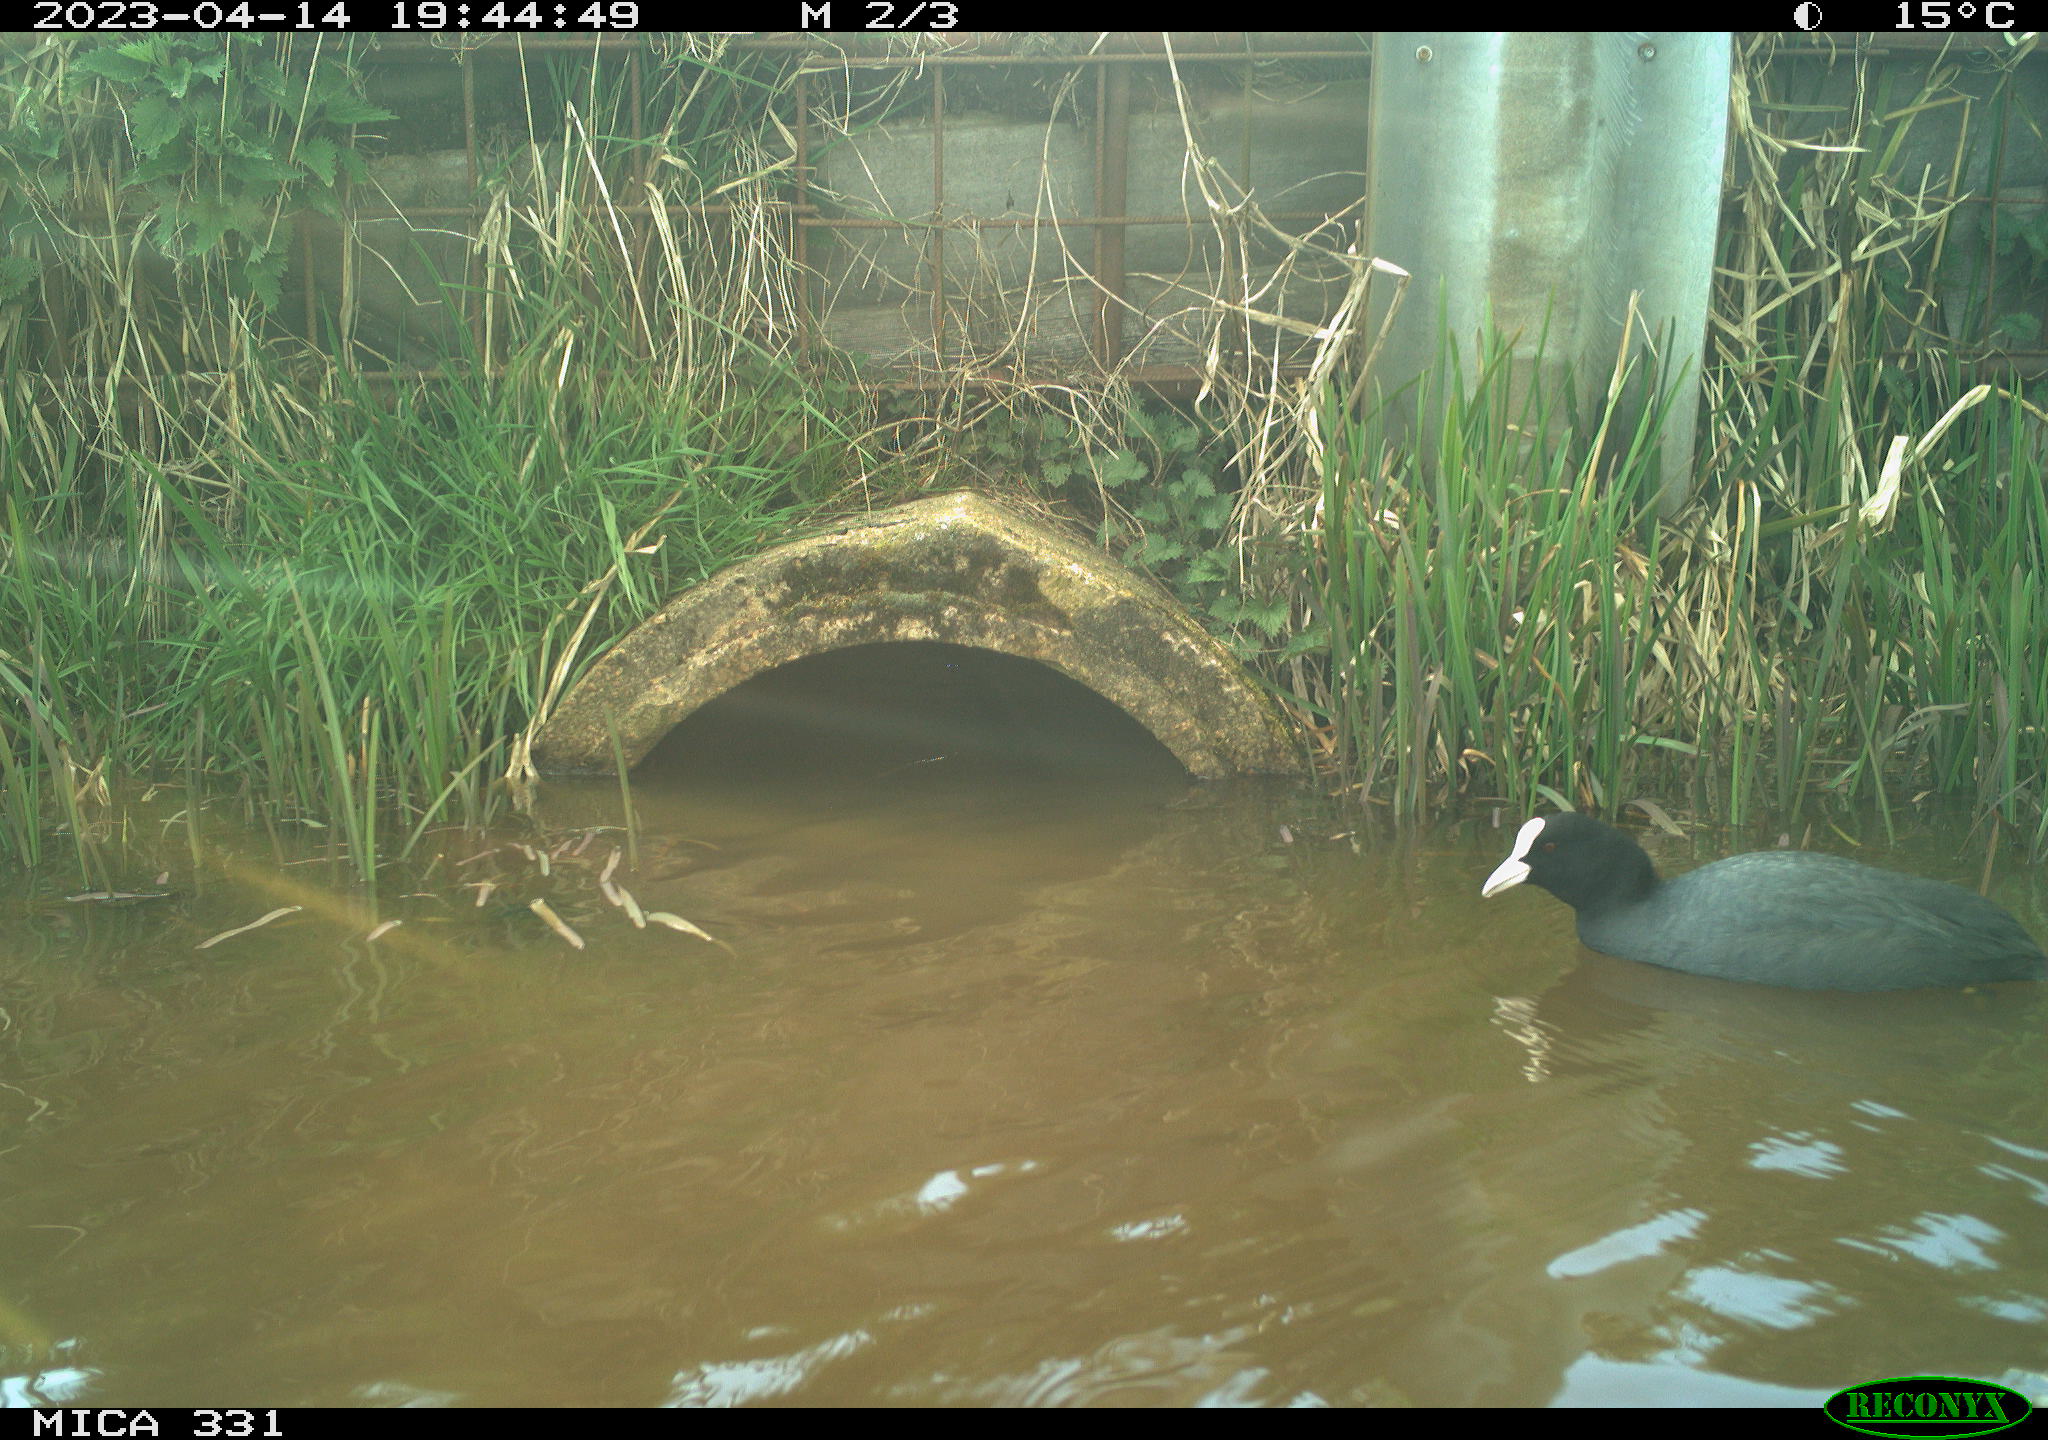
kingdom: Animalia
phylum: Chordata
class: Aves
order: Gruiformes
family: Rallidae
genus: Fulica
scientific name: Fulica atra
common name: Eurasian coot
